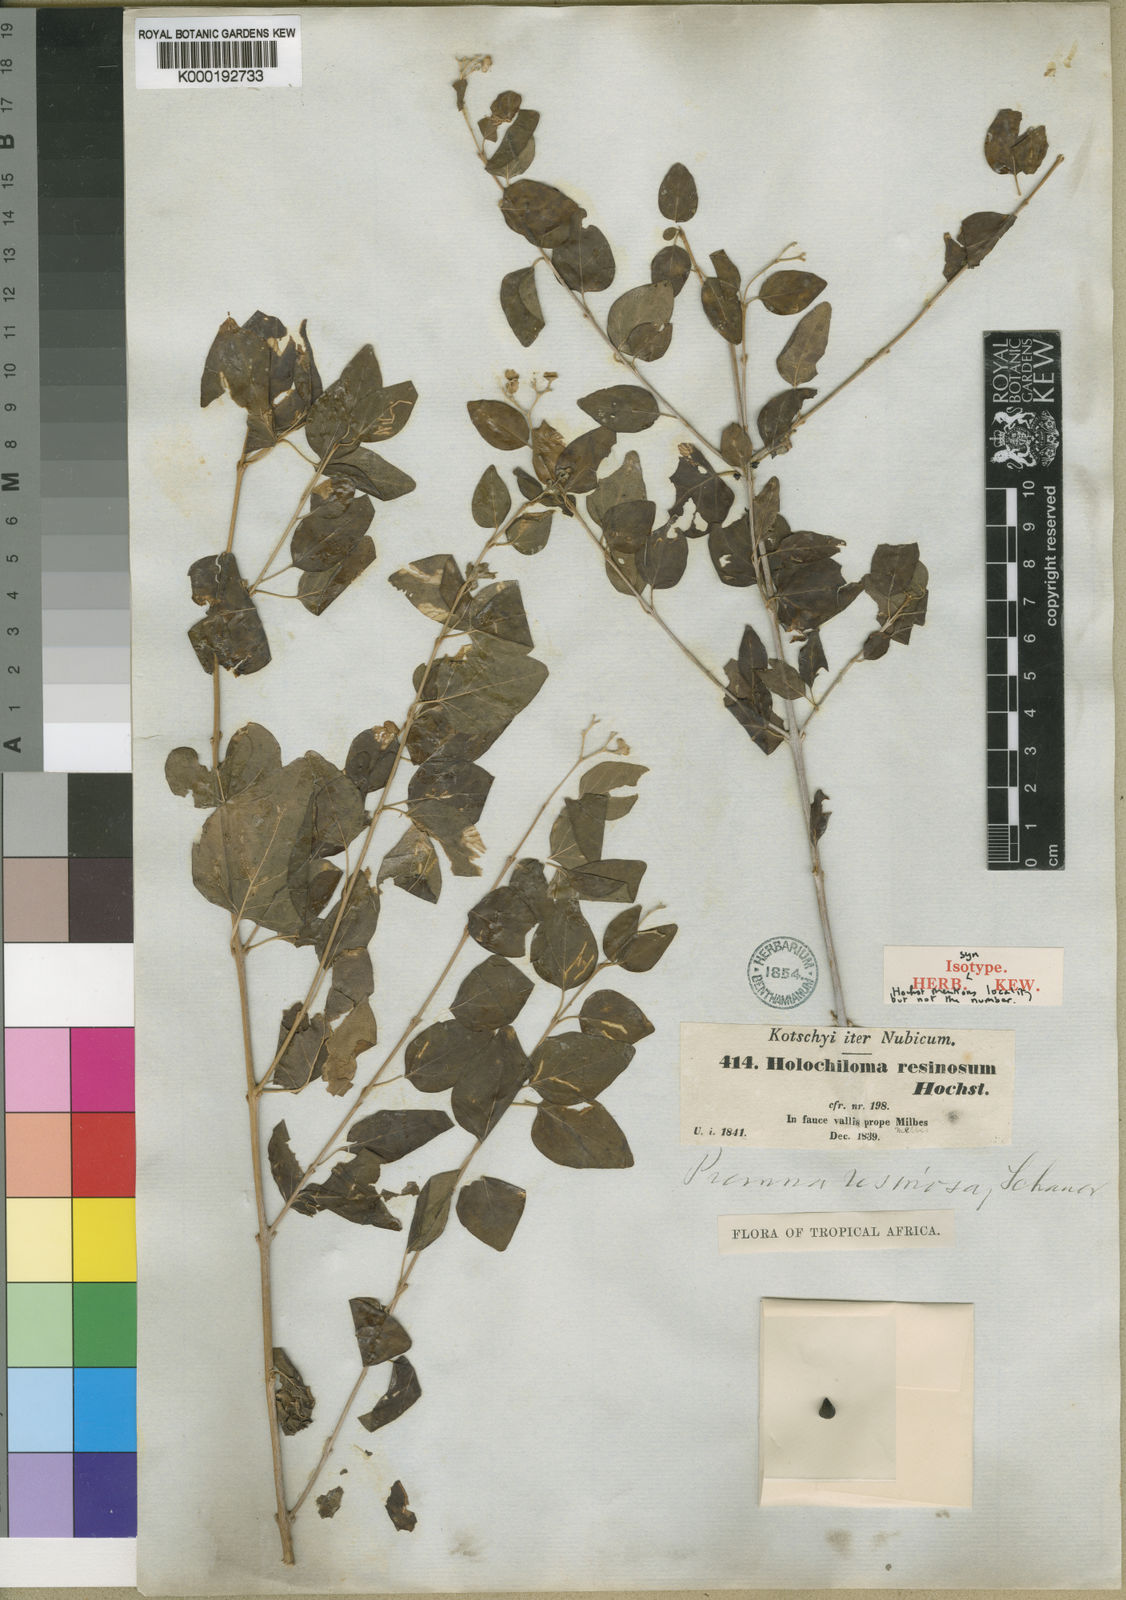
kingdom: Plantae
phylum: Tracheophyta
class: Magnoliopsida
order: Lamiales
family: Lamiaceae
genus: Premna
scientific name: Premna resinosa
